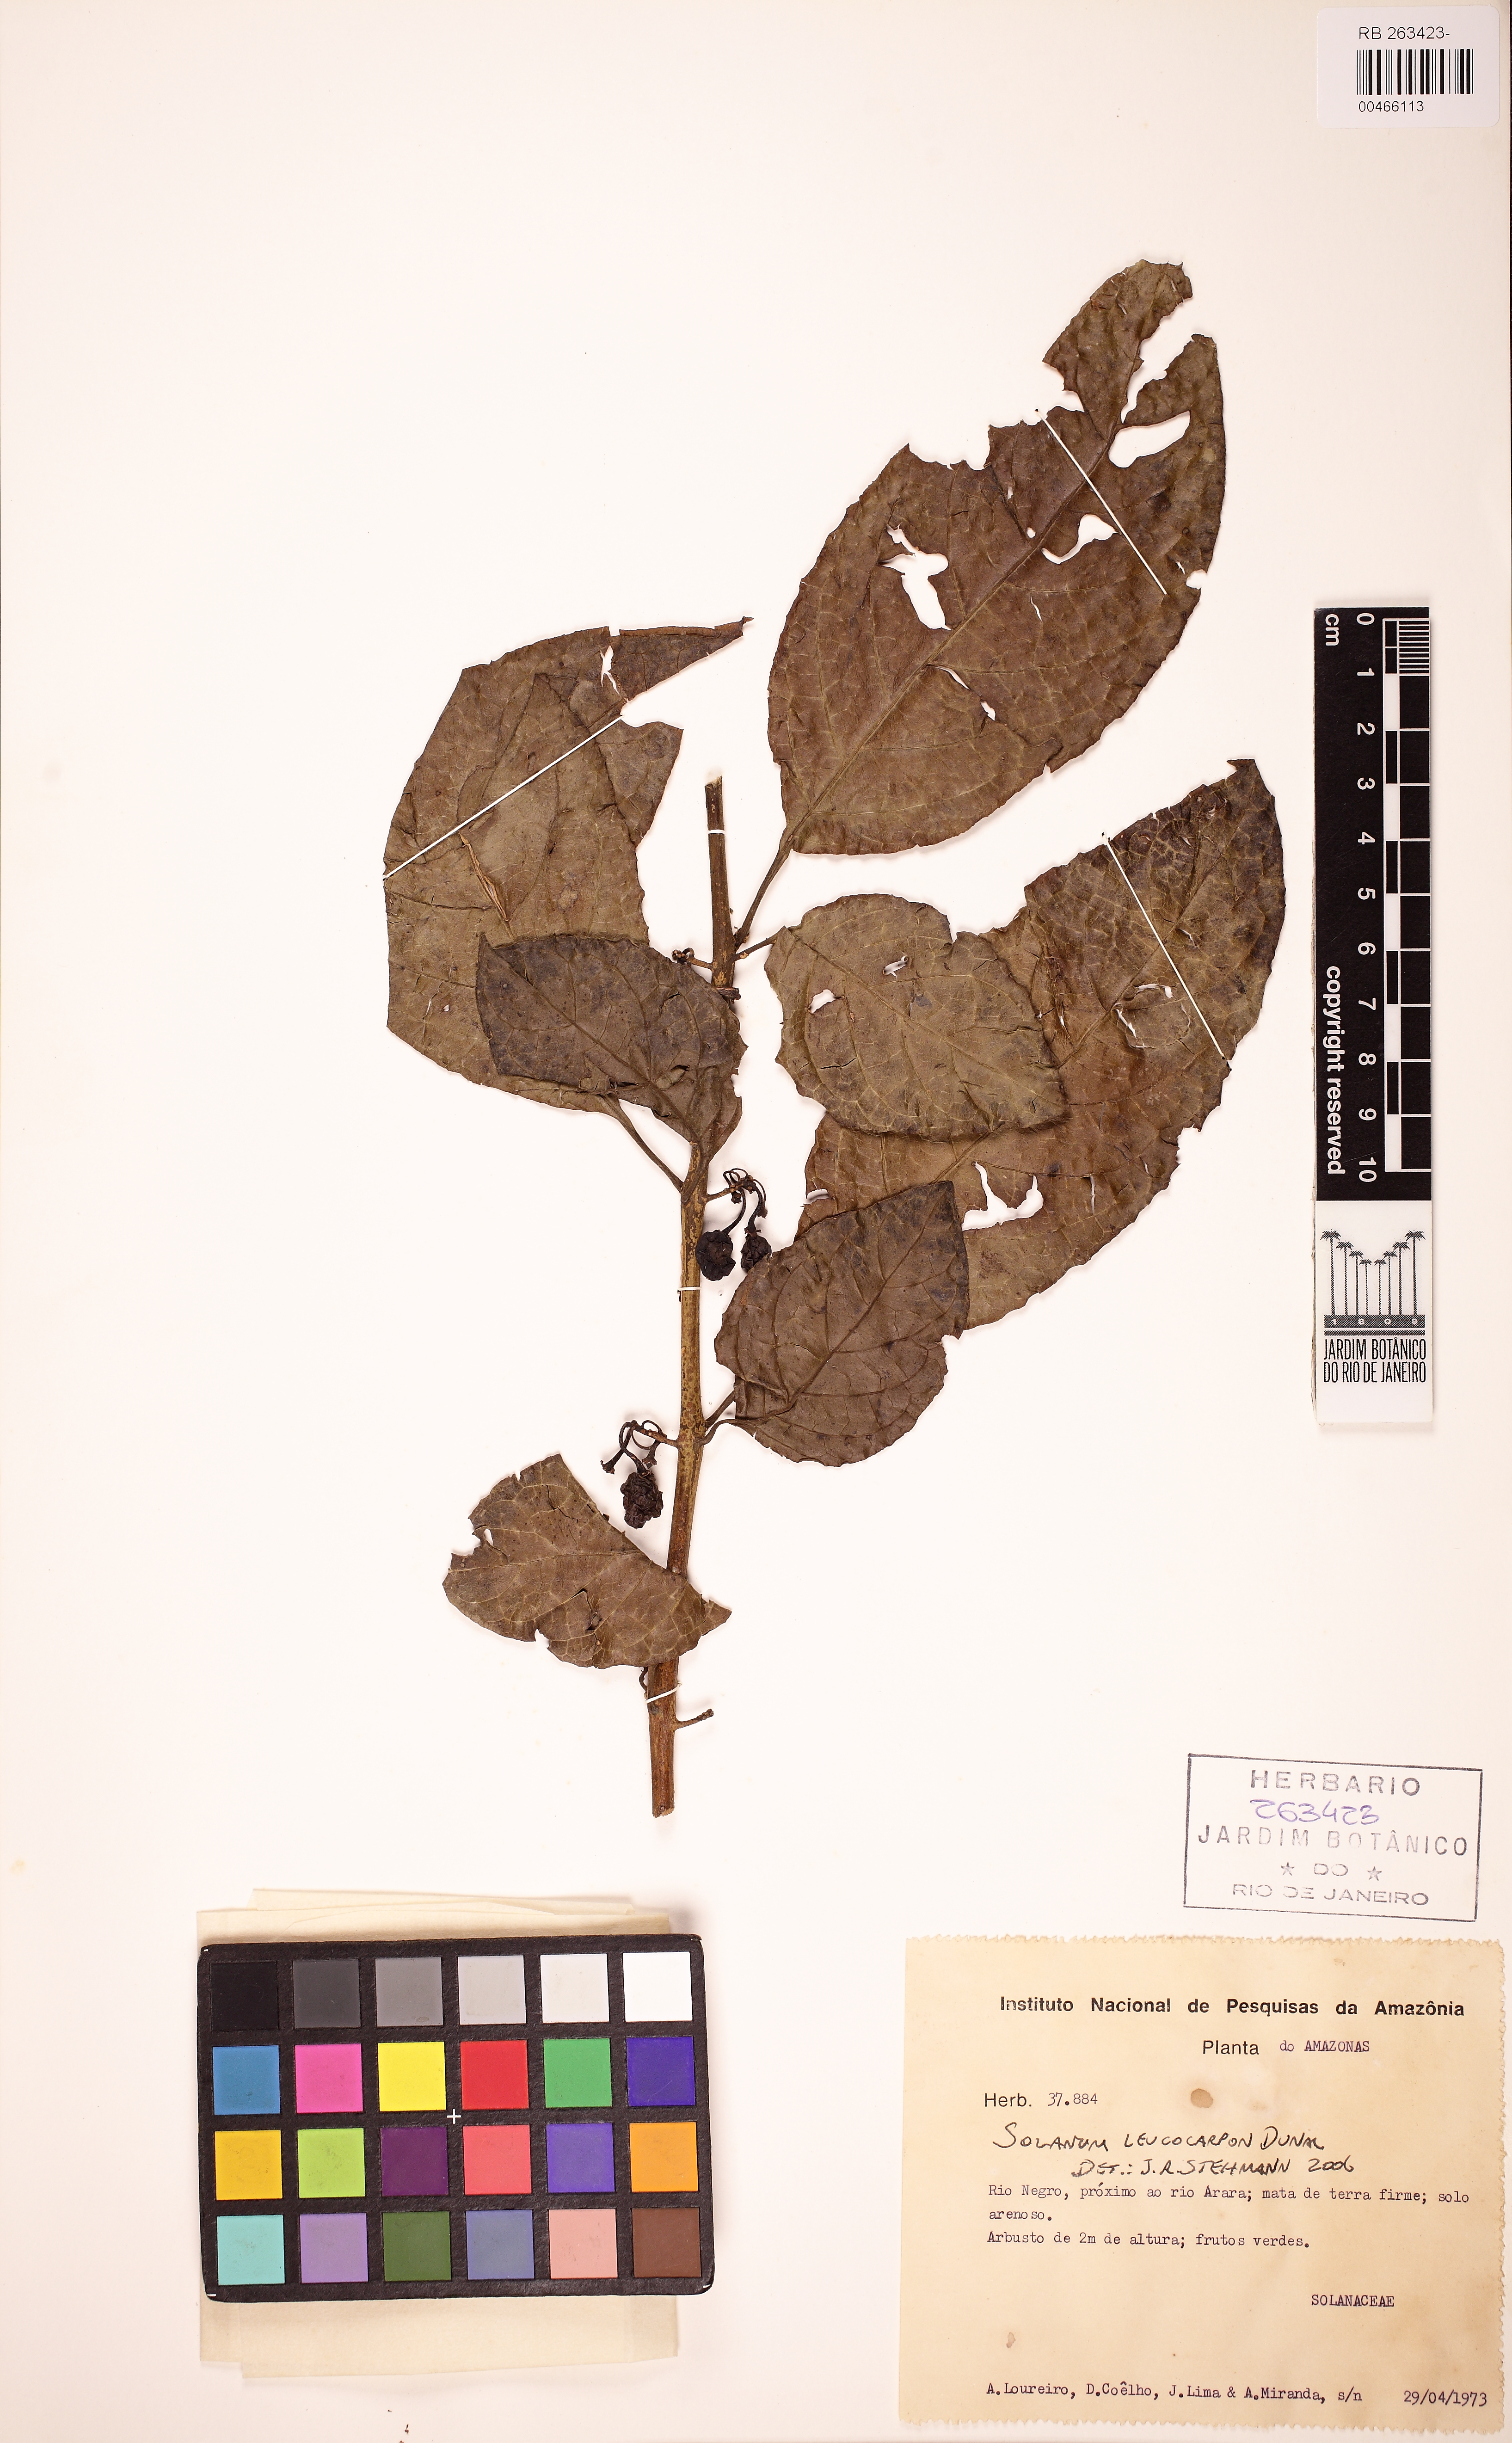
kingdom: Plantae
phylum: Tracheophyta
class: Magnoliopsida
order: Solanales
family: Solanaceae
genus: Solanum
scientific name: Solanum leucocarpon
